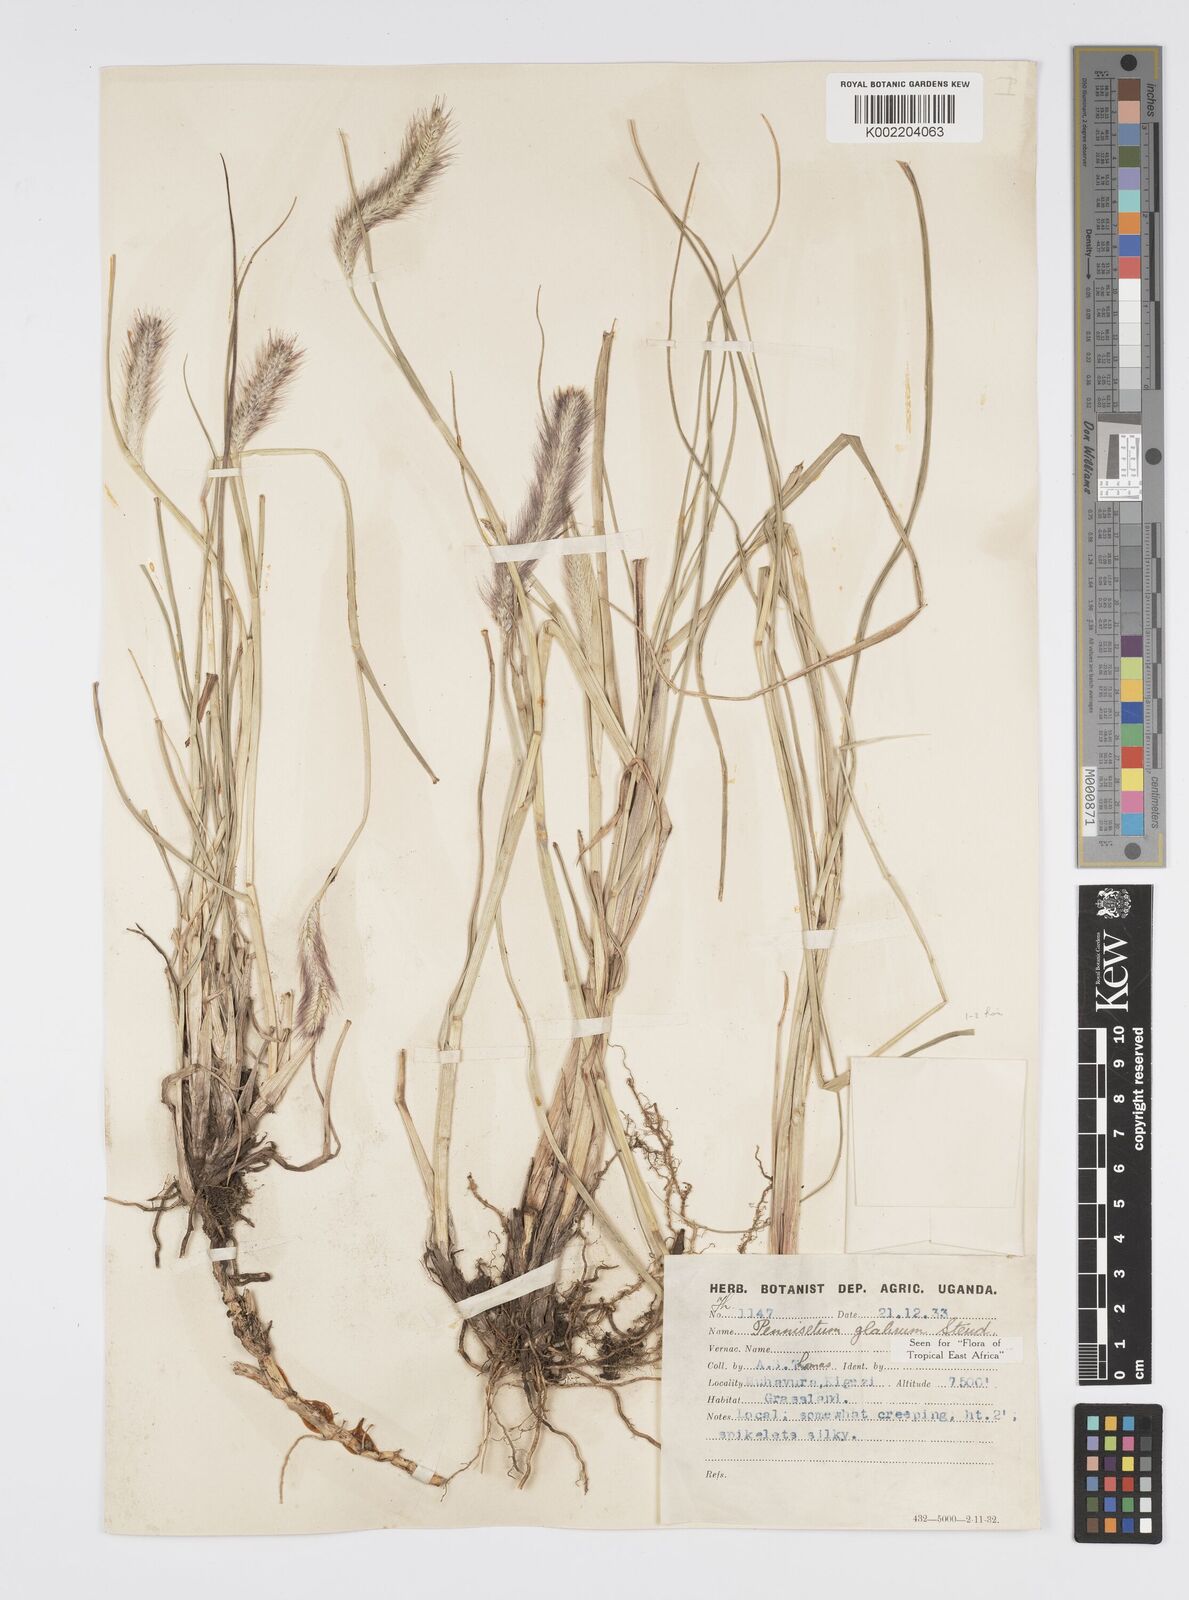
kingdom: Plantae
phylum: Tracheophyta
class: Liliopsida
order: Poales
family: Poaceae
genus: Cenchrus
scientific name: Cenchrus geniculatus
